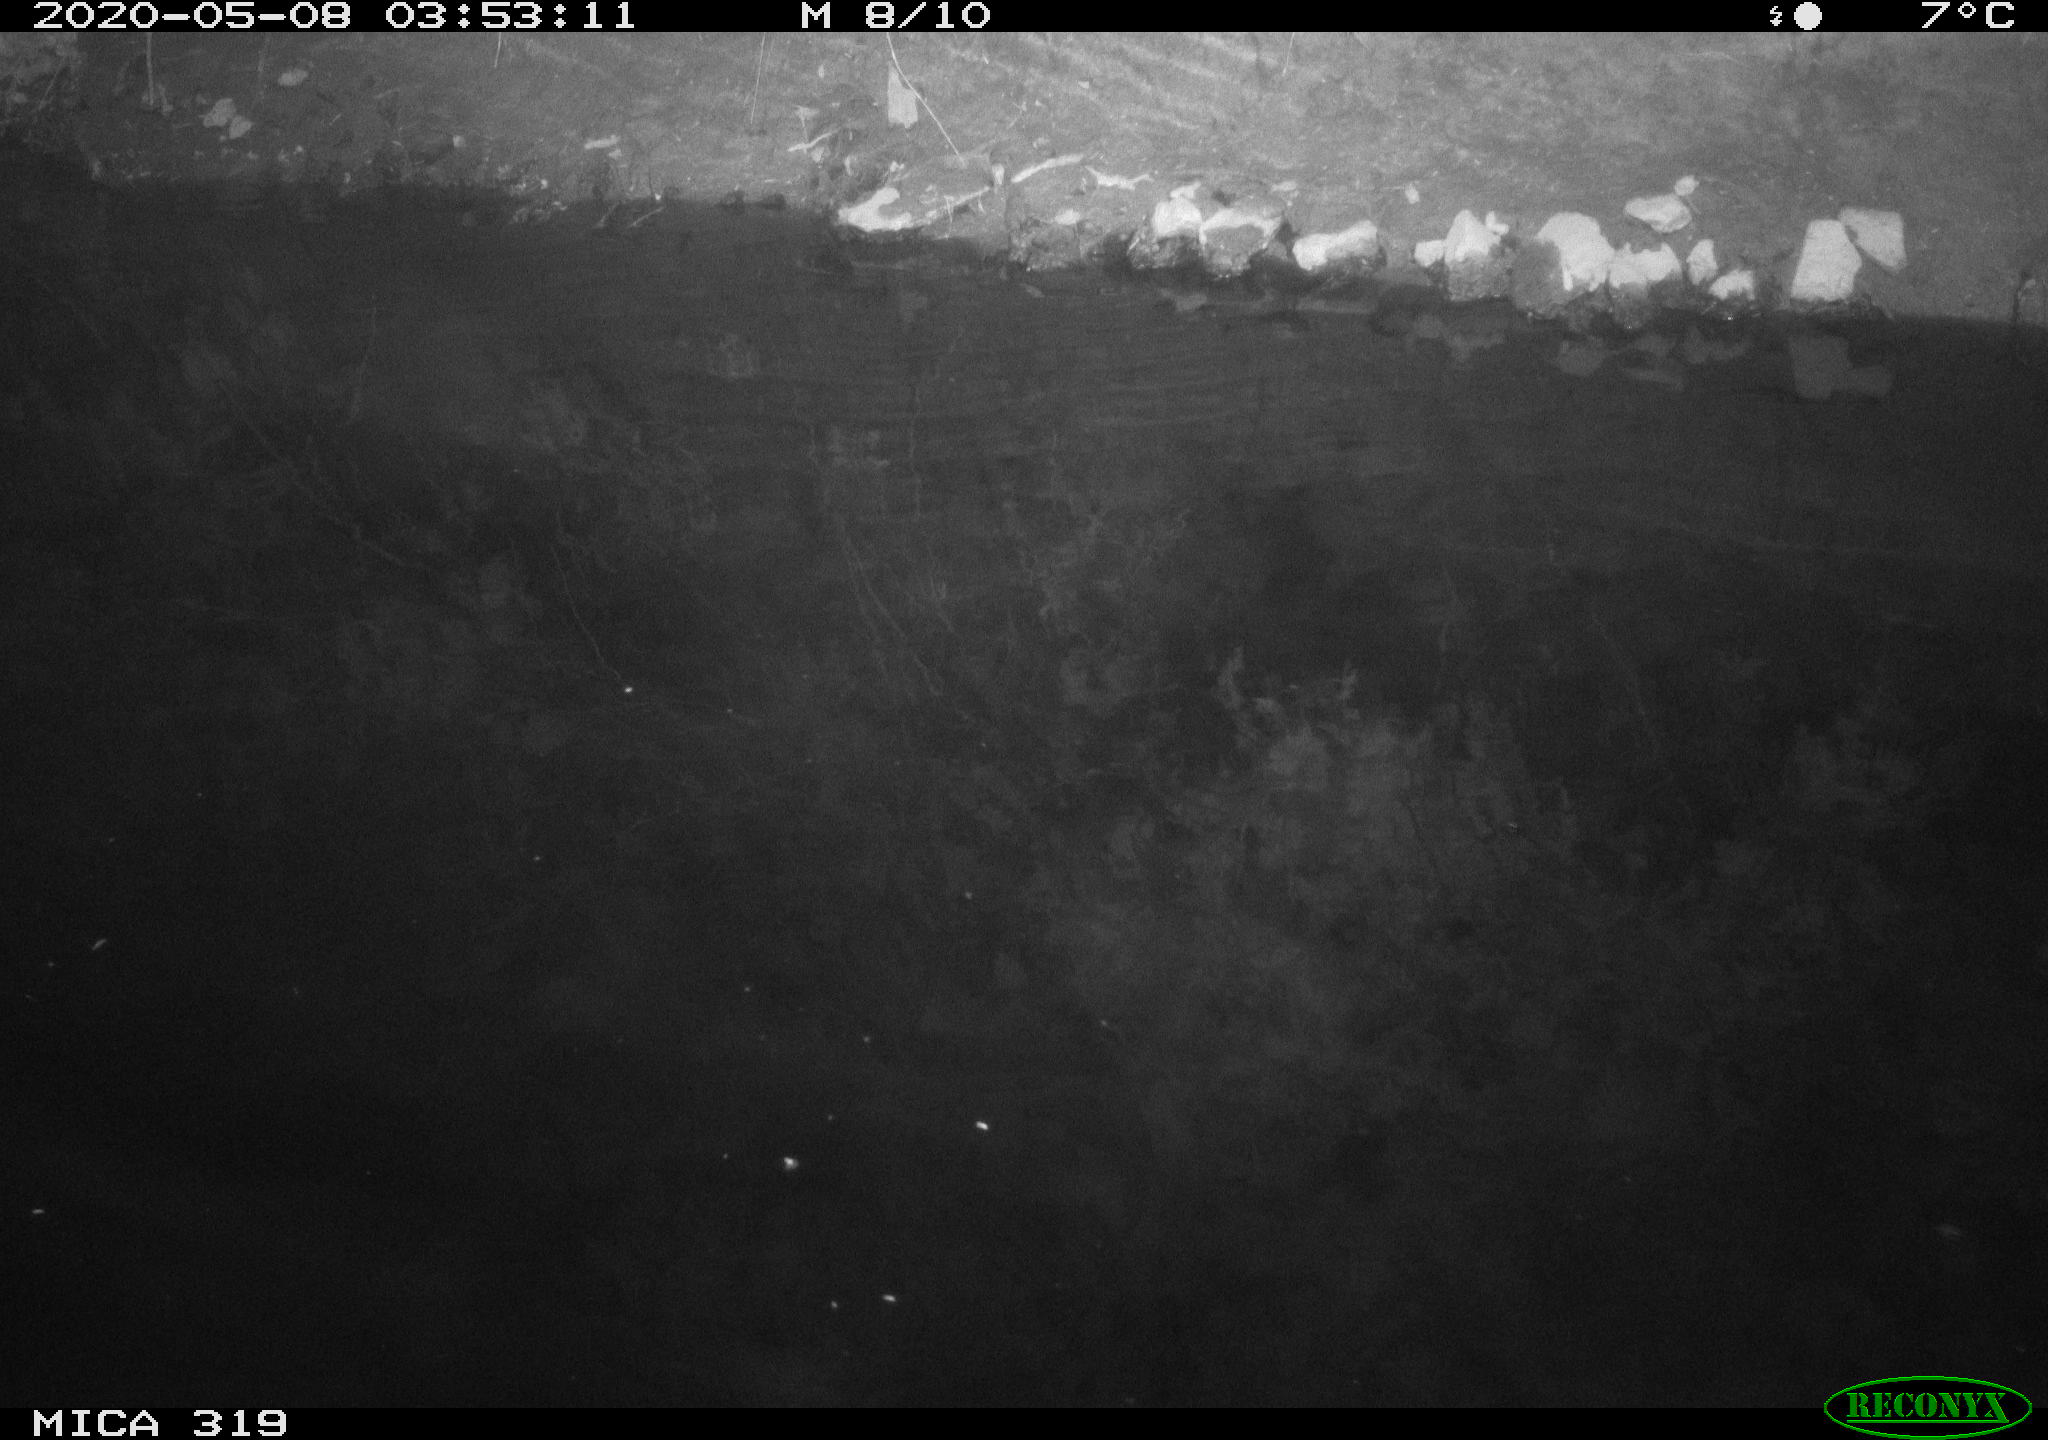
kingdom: Animalia
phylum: Chordata
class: Aves
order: Anseriformes
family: Anatidae
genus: Anas
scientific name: Anas platyrhynchos
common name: Mallard
